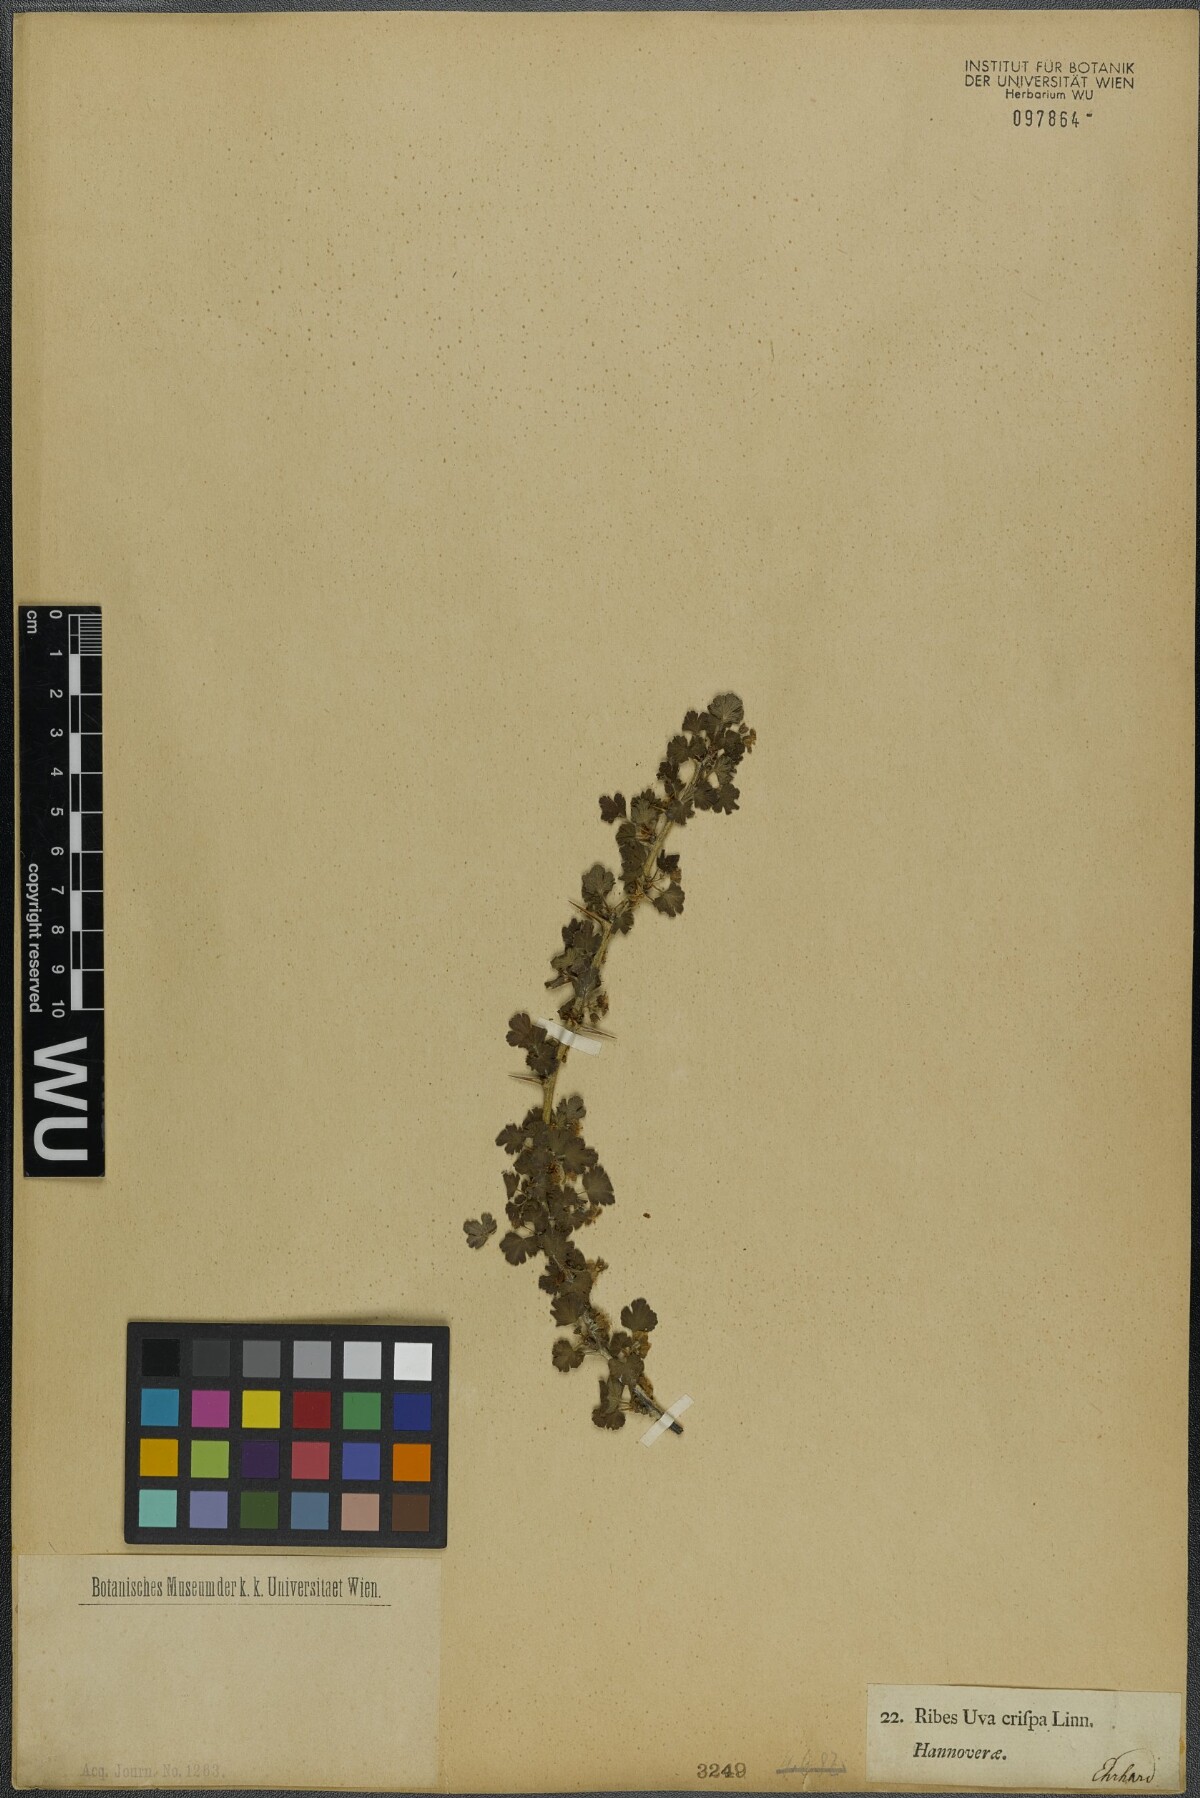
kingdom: Plantae
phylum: Tracheophyta
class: Magnoliopsida
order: Saxifragales
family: Grossulariaceae
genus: Ribes
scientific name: Ribes uva-crispa
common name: Gooseberry
